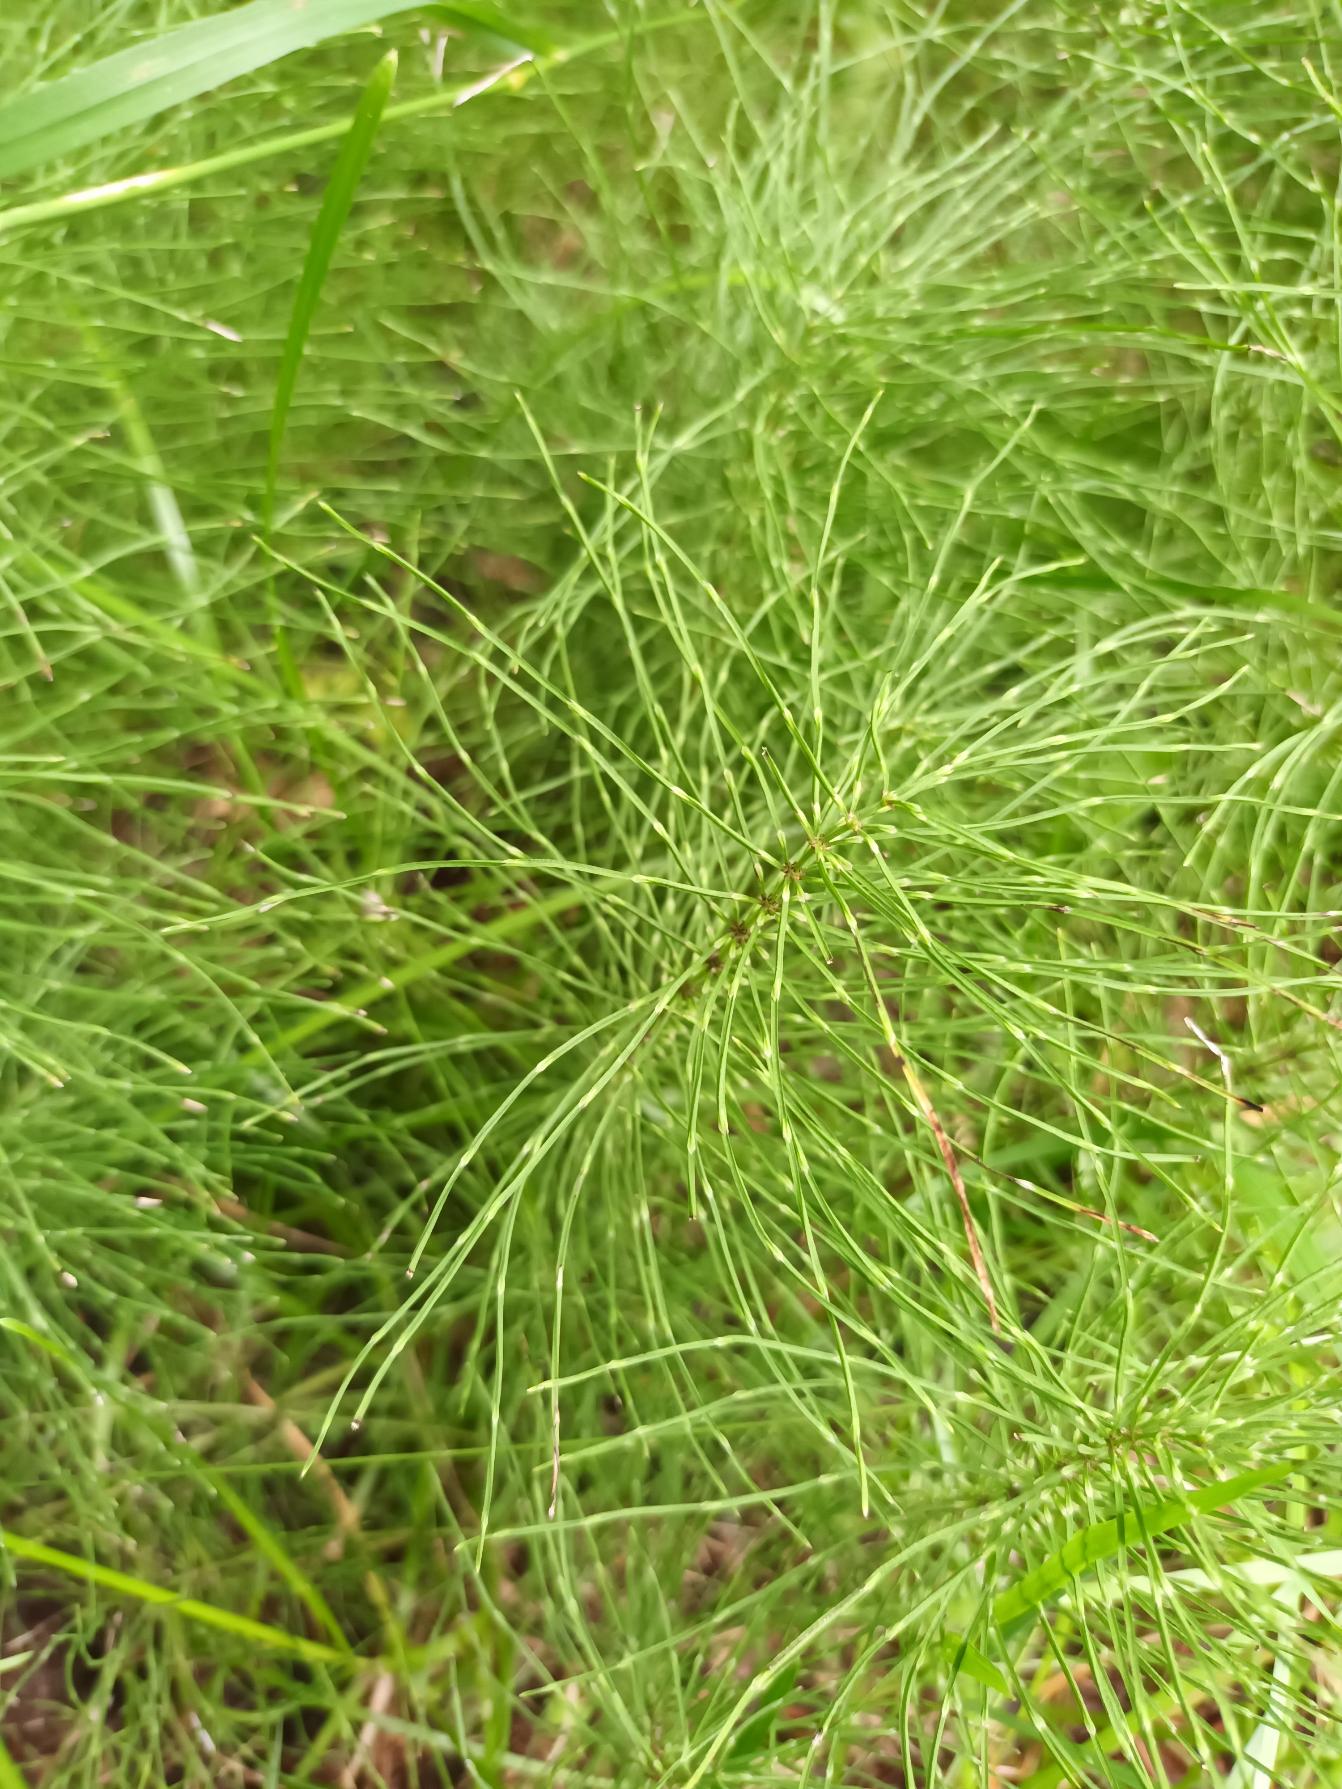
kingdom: Plantae
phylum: Tracheophyta
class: Polypodiopsida
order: Equisetales
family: Equisetaceae
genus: Equisetum
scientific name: Equisetum pratense
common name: Lund-padderok
